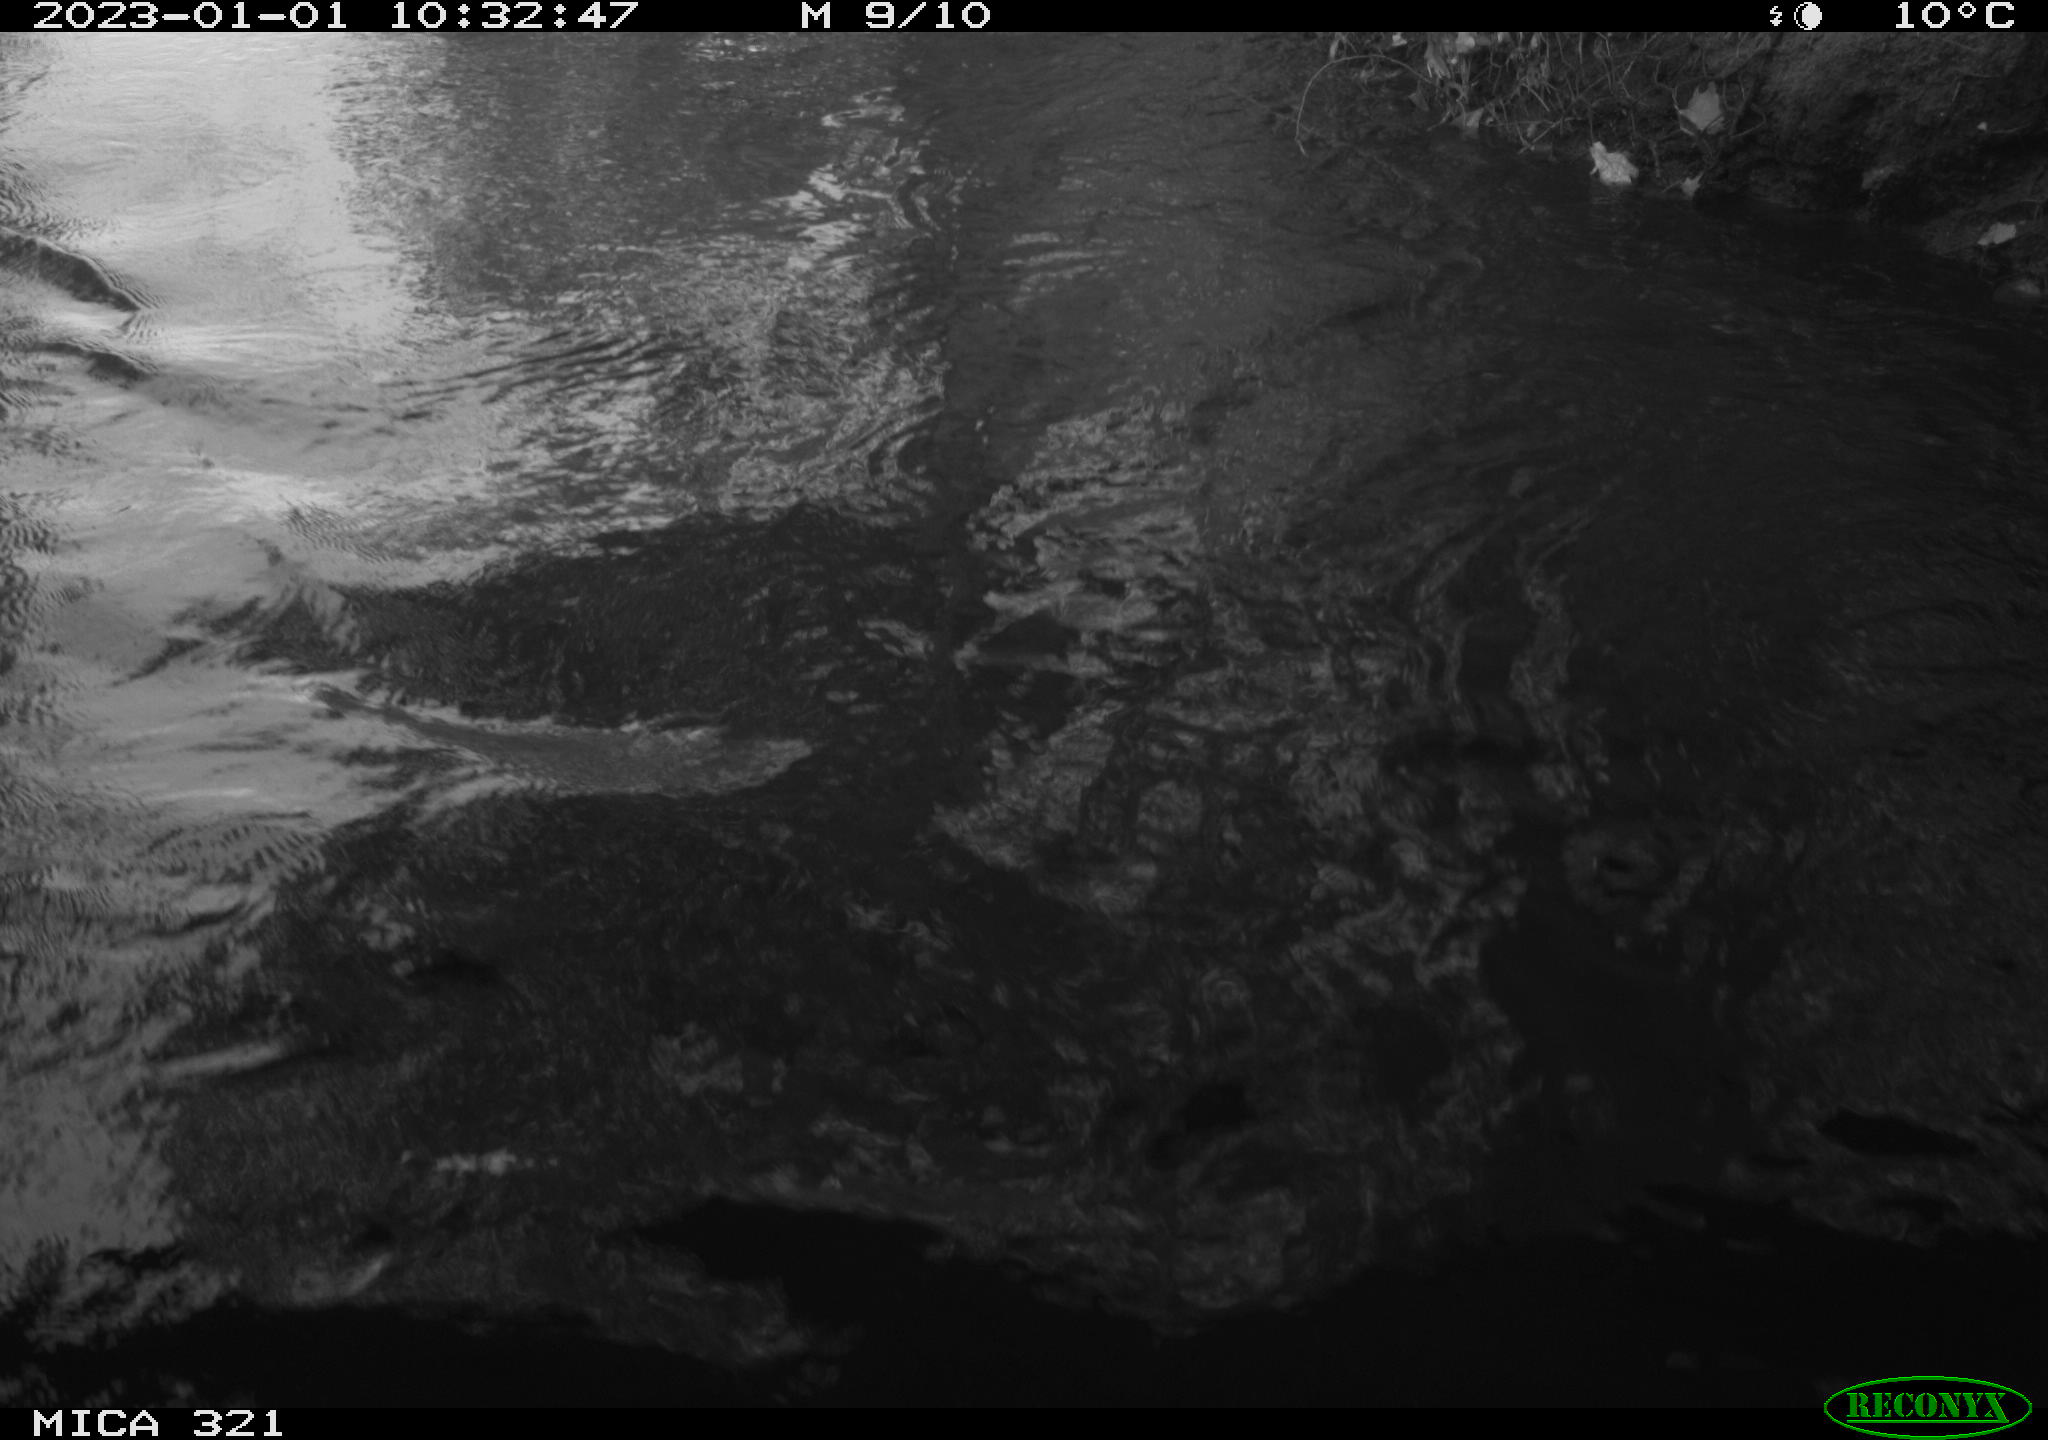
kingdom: Animalia
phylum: Chordata
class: Aves
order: Anseriformes
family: Anatidae
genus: Anas
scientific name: Anas
